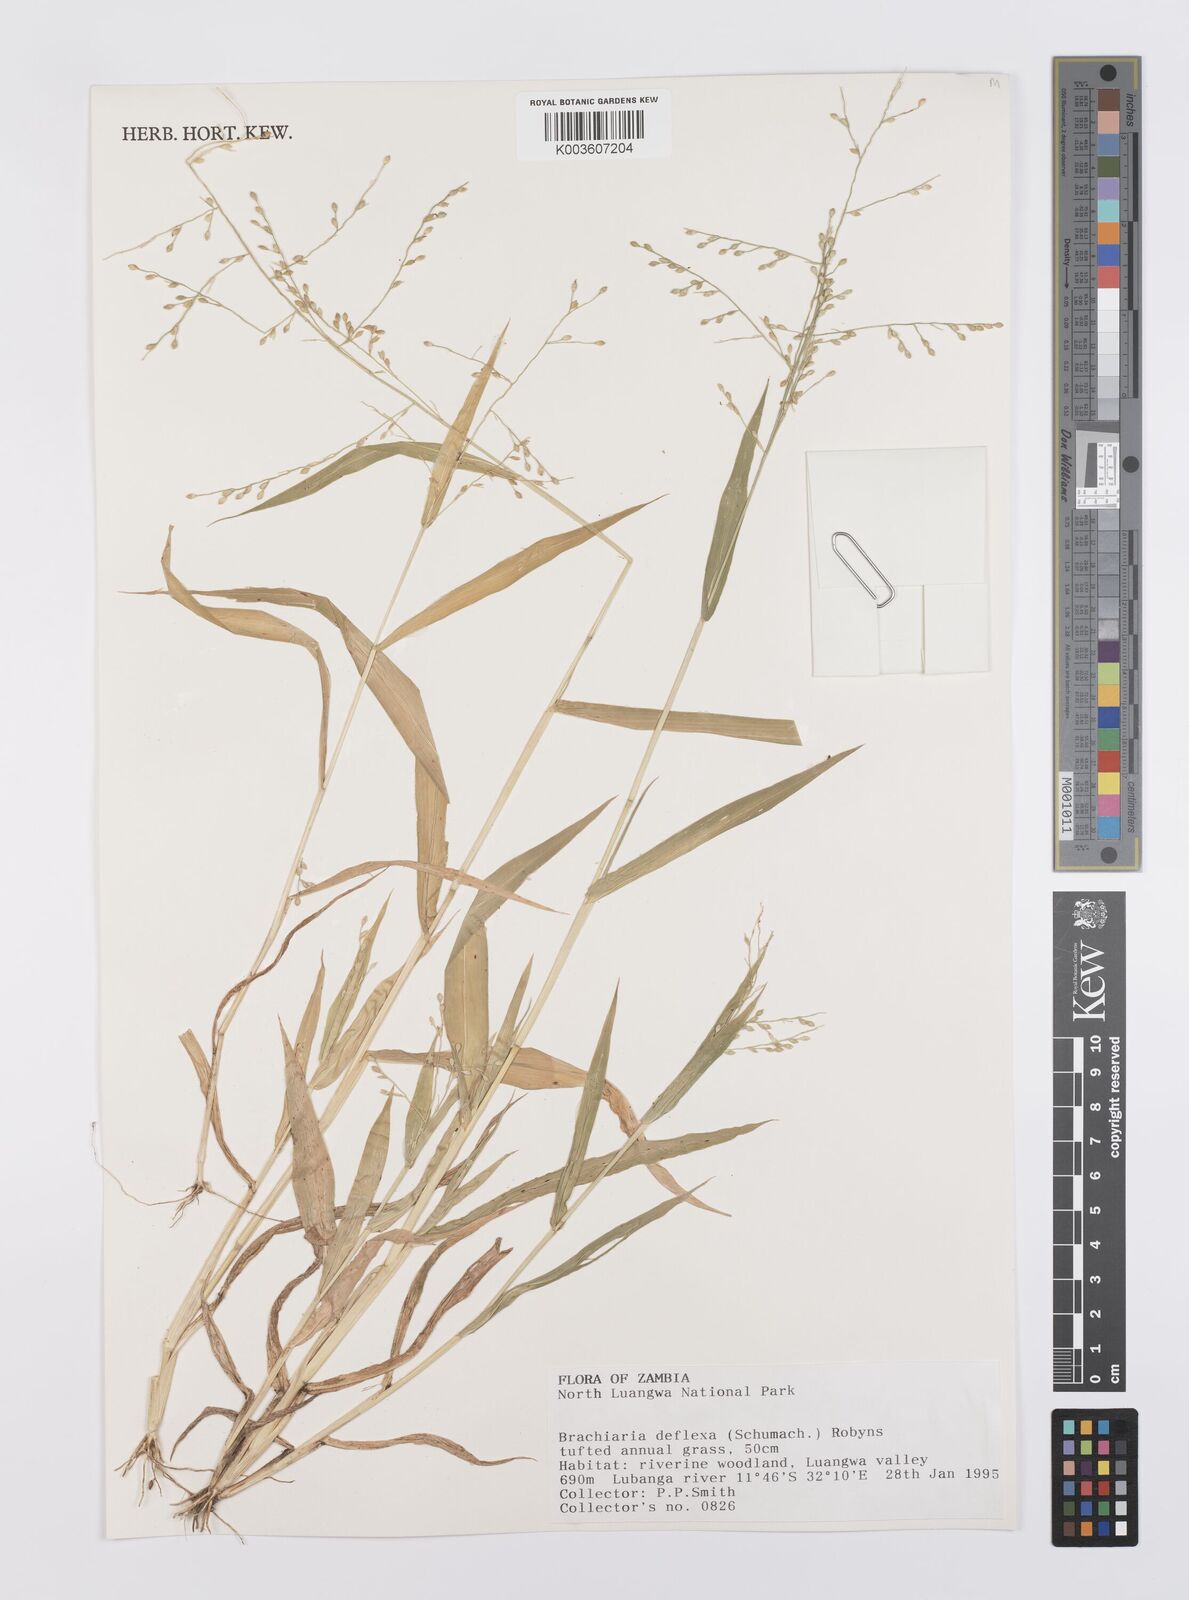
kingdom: Plantae
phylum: Tracheophyta
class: Liliopsida
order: Poales
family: Poaceae
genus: Urochloa
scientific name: Urochloa deflexa
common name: Guinea millet
